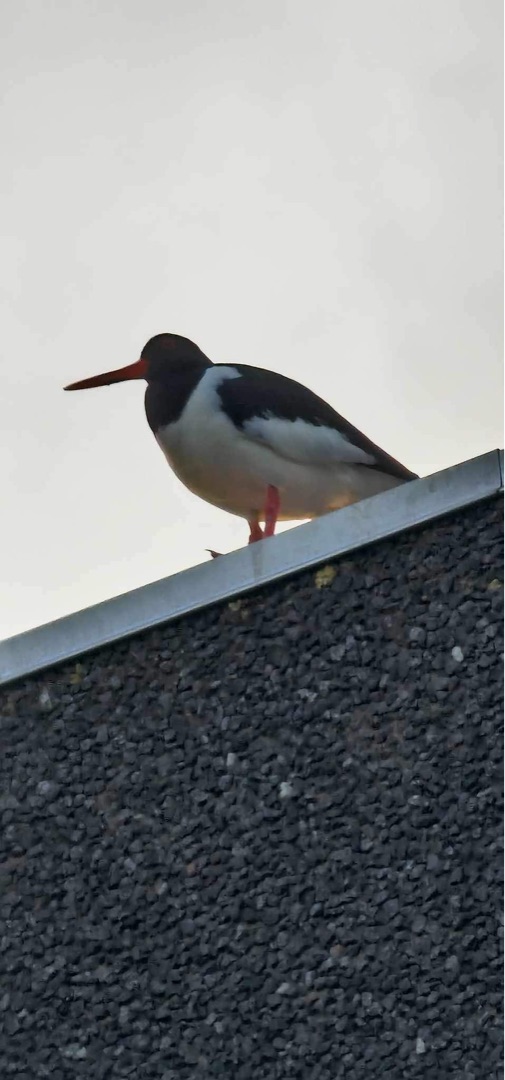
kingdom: Animalia
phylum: Chordata
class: Aves
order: Charadriiformes
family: Haematopodidae
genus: Haematopus
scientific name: Haematopus ostralegus
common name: Strandskade
